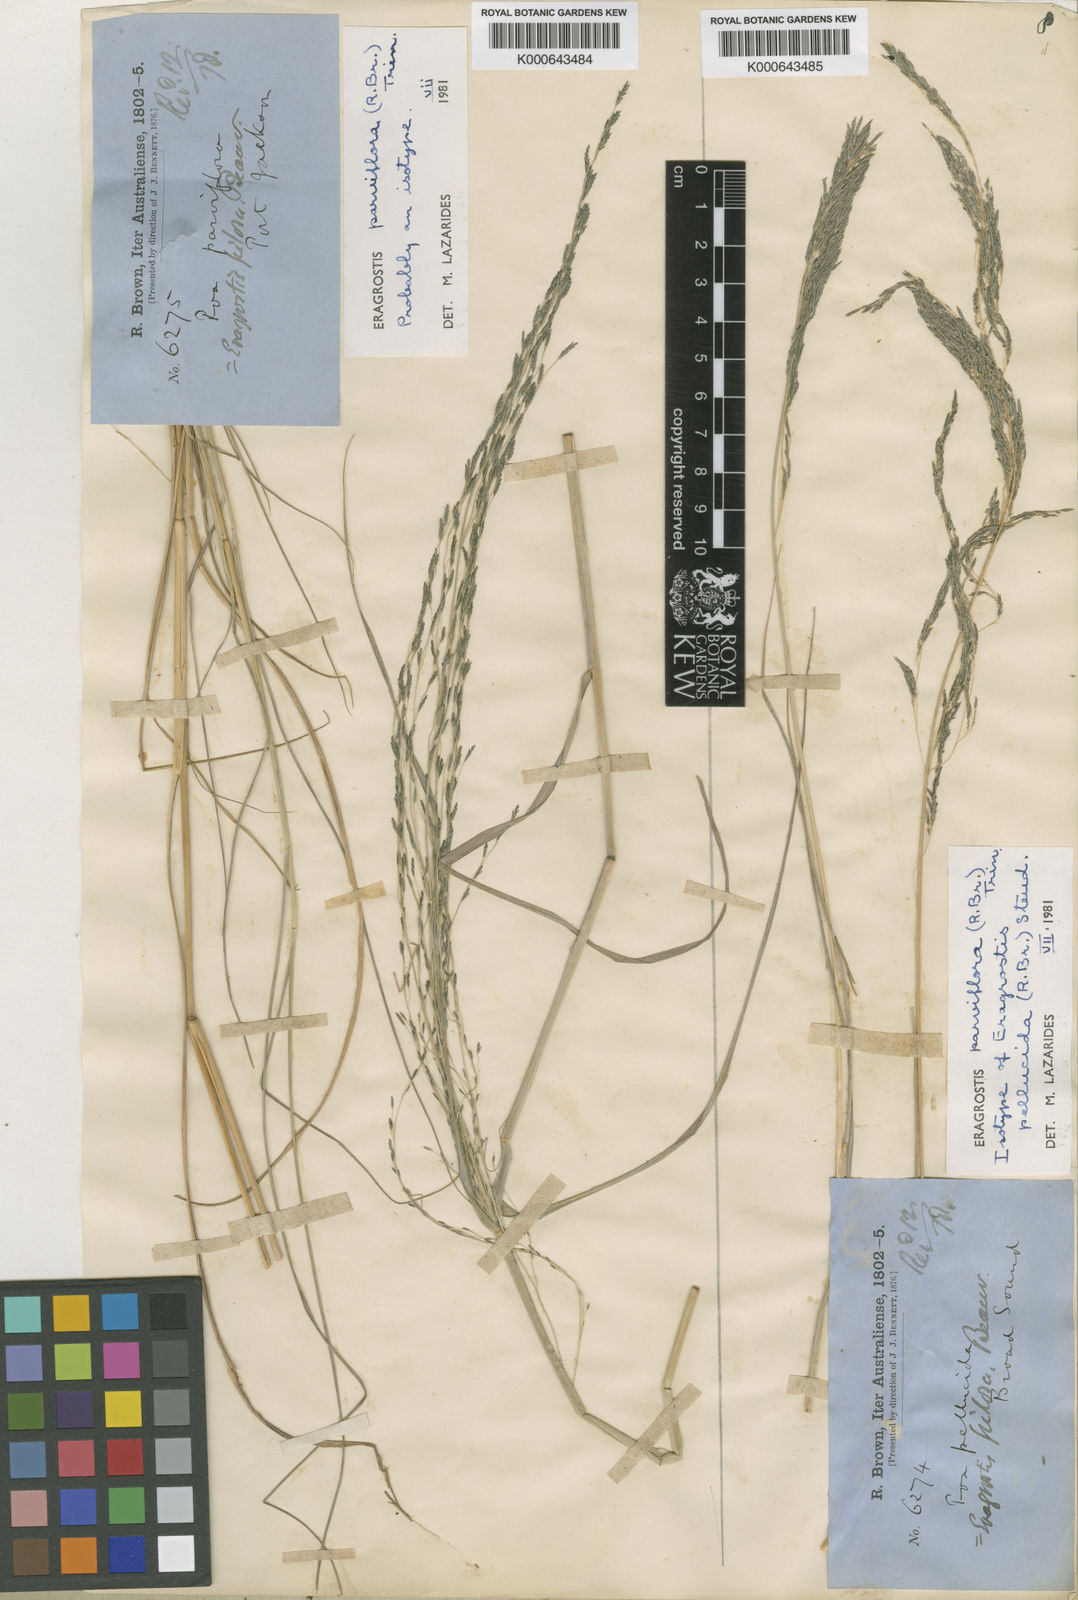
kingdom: Plantae
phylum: Tracheophyta
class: Liliopsida
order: Poales
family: Poaceae
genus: Eragrostis
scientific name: Eragrostis parviflora
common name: Weeping love-grass
